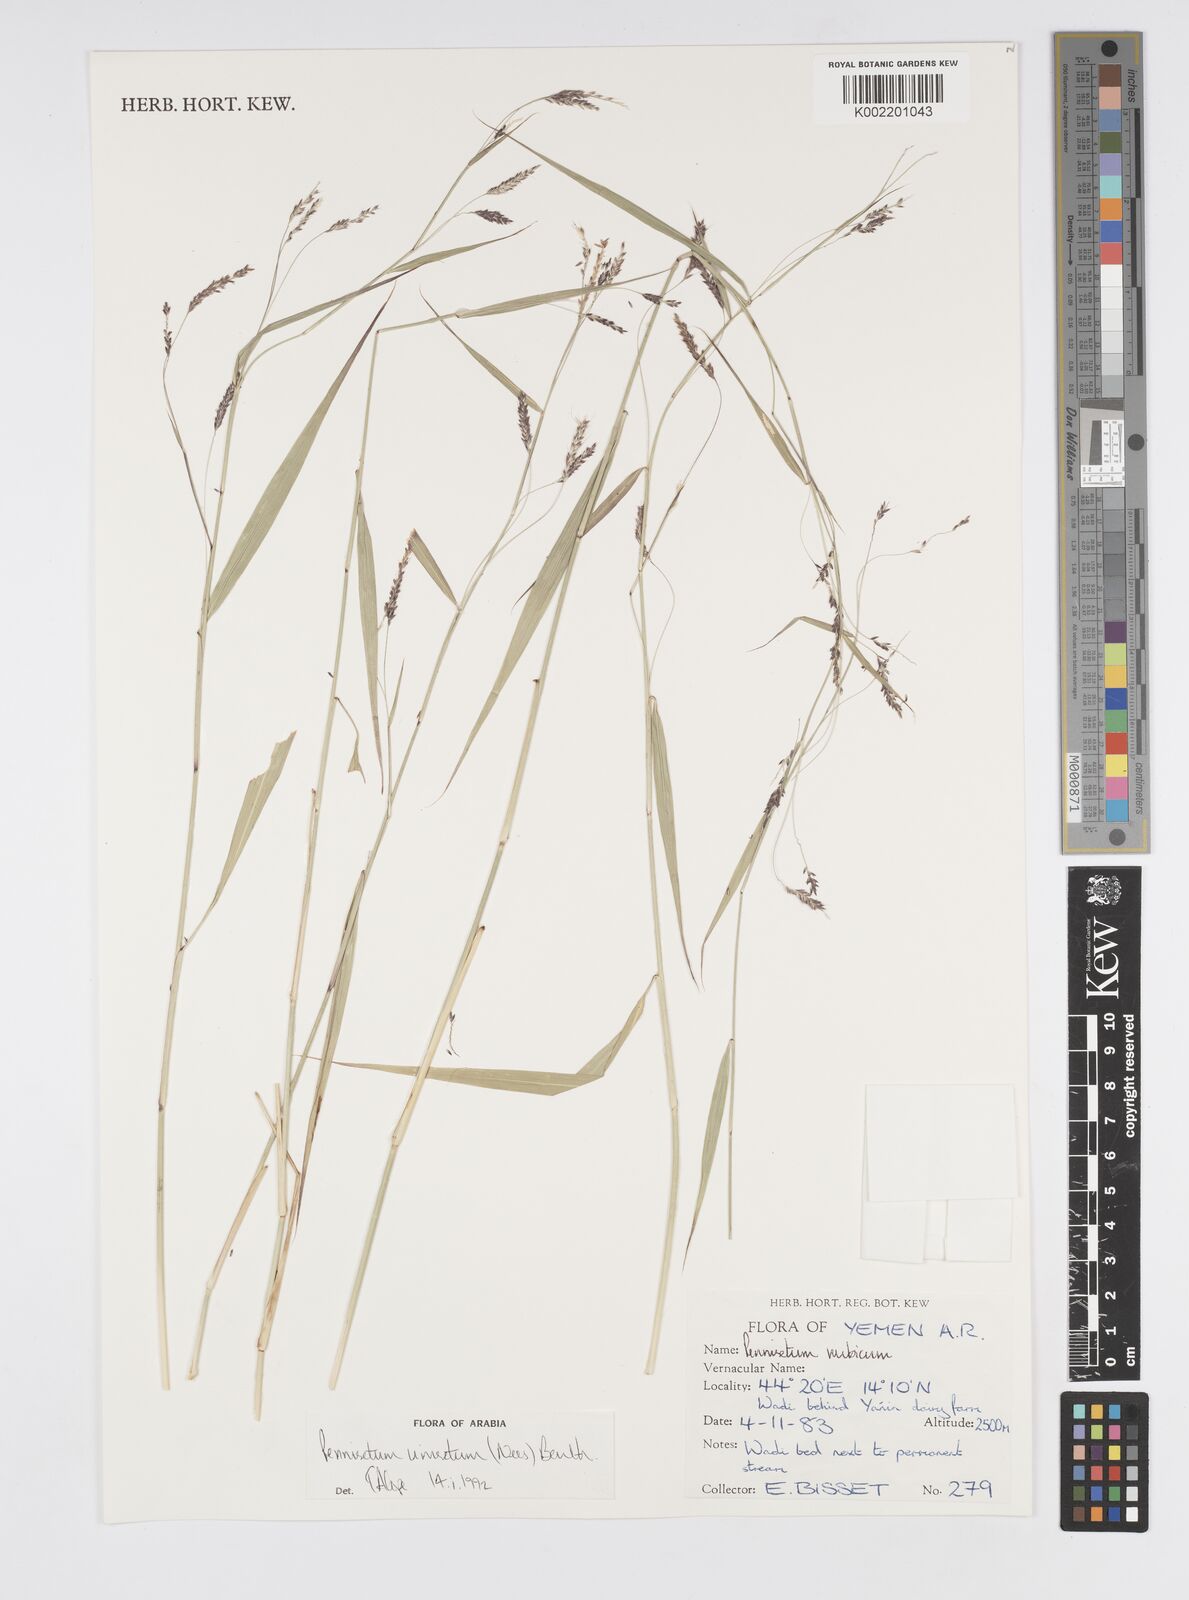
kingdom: Plantae
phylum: Tracheophyta
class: Liliopsida
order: Poales
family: Poaceae
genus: Cenchrus
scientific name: Cenchrus unisetus
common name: Natal grass
